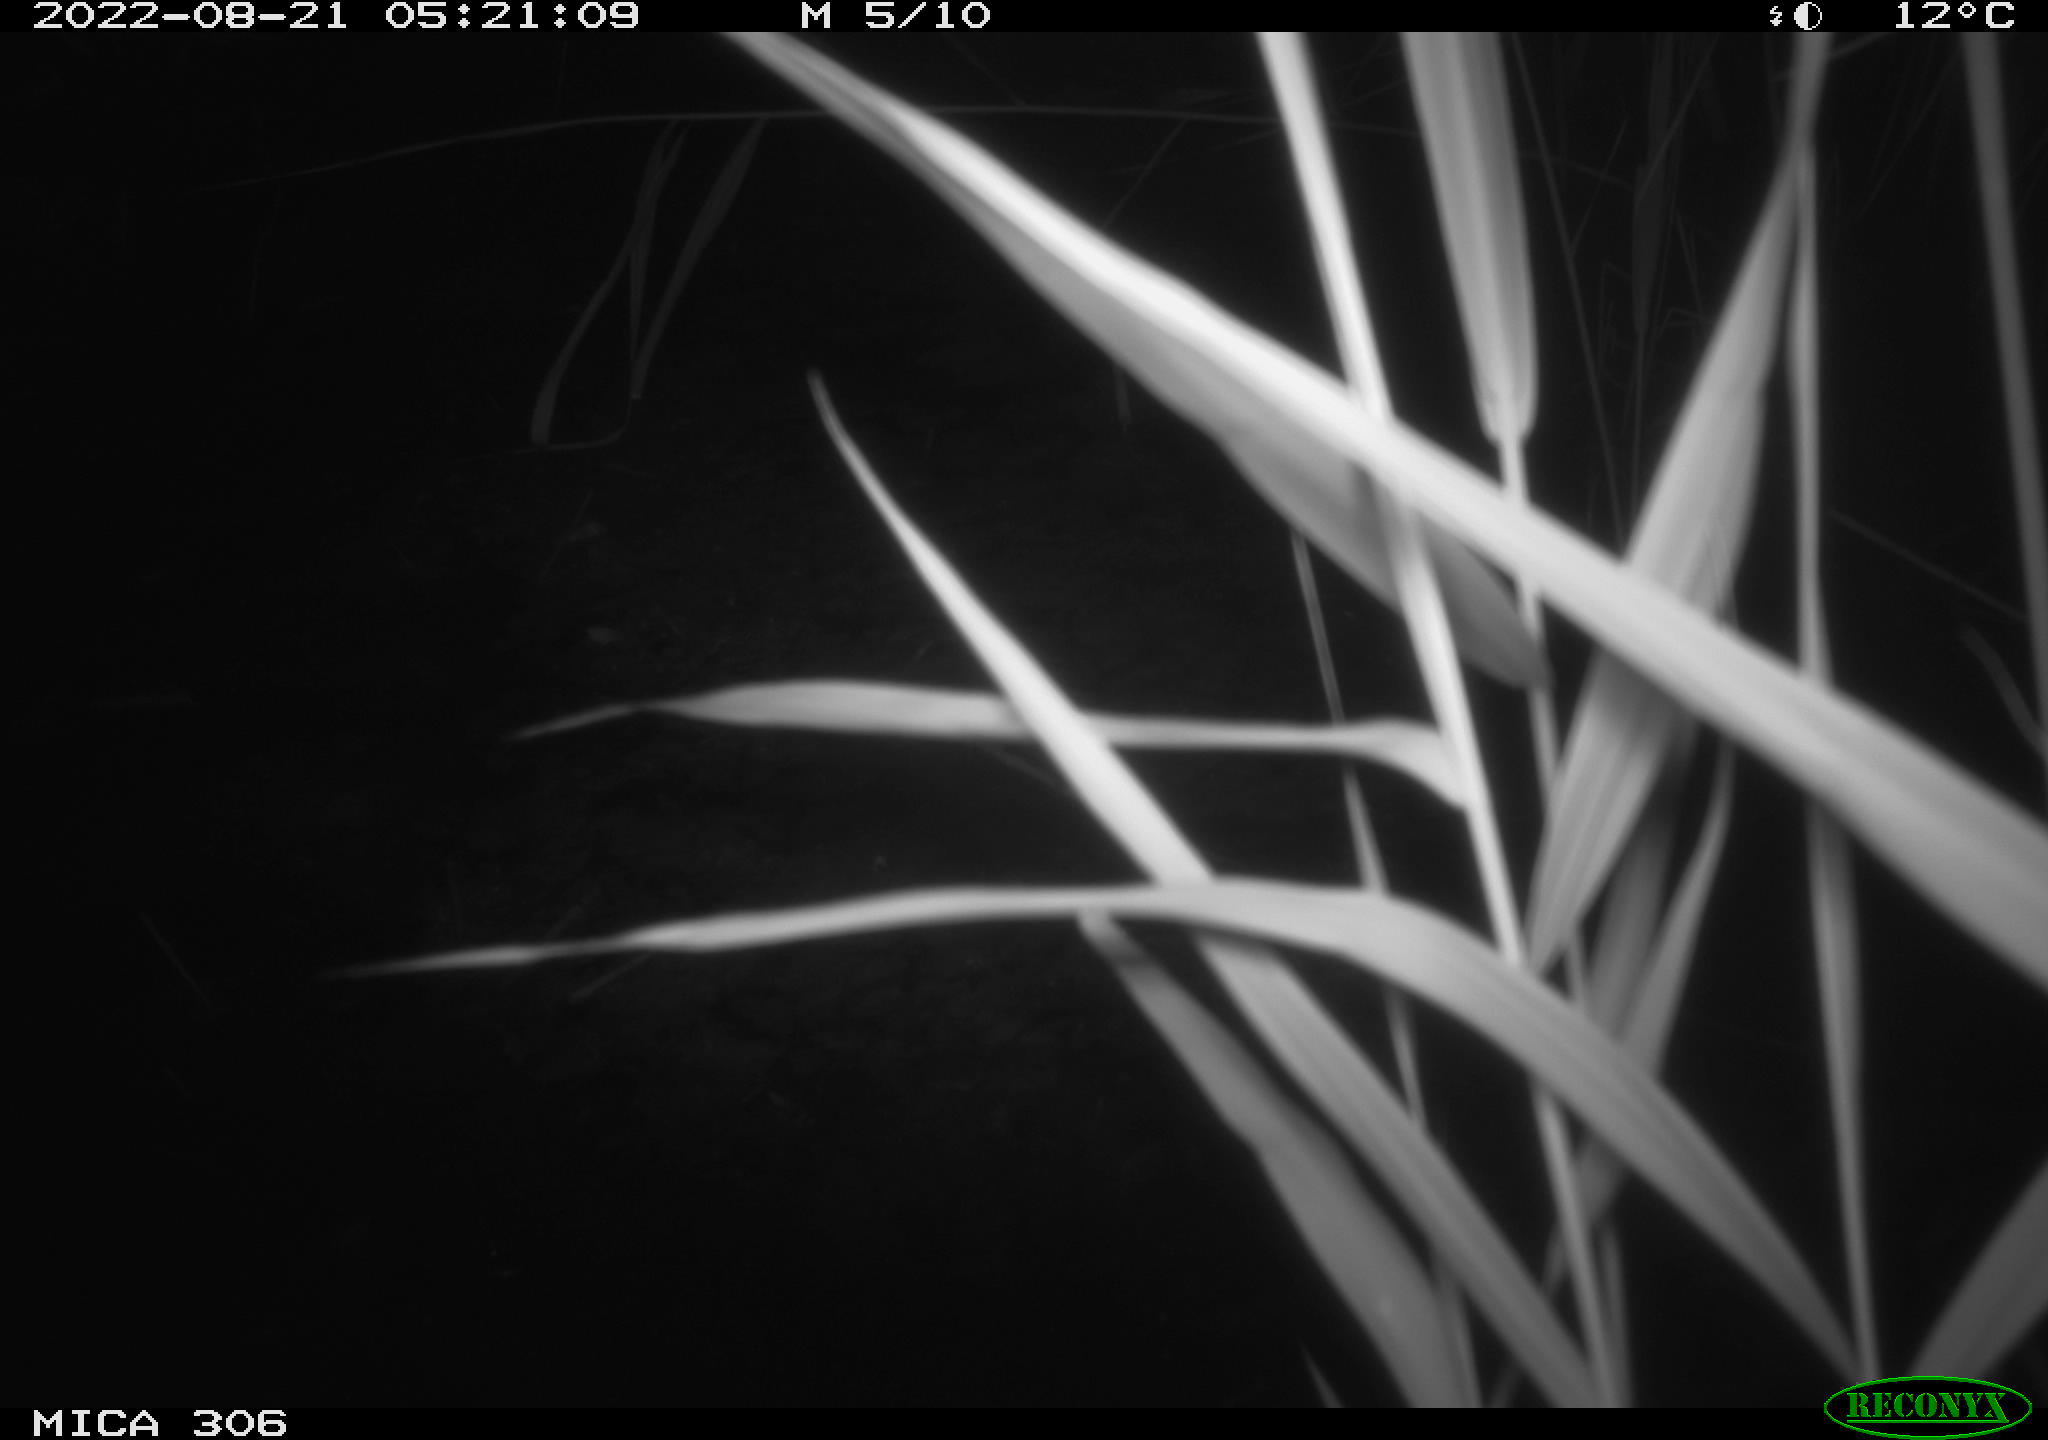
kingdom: Animalia
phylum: Chordata
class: Mammalia
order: Rodentia
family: Muridae
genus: Rattus
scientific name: Rattus norvegicus
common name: Brown rat
